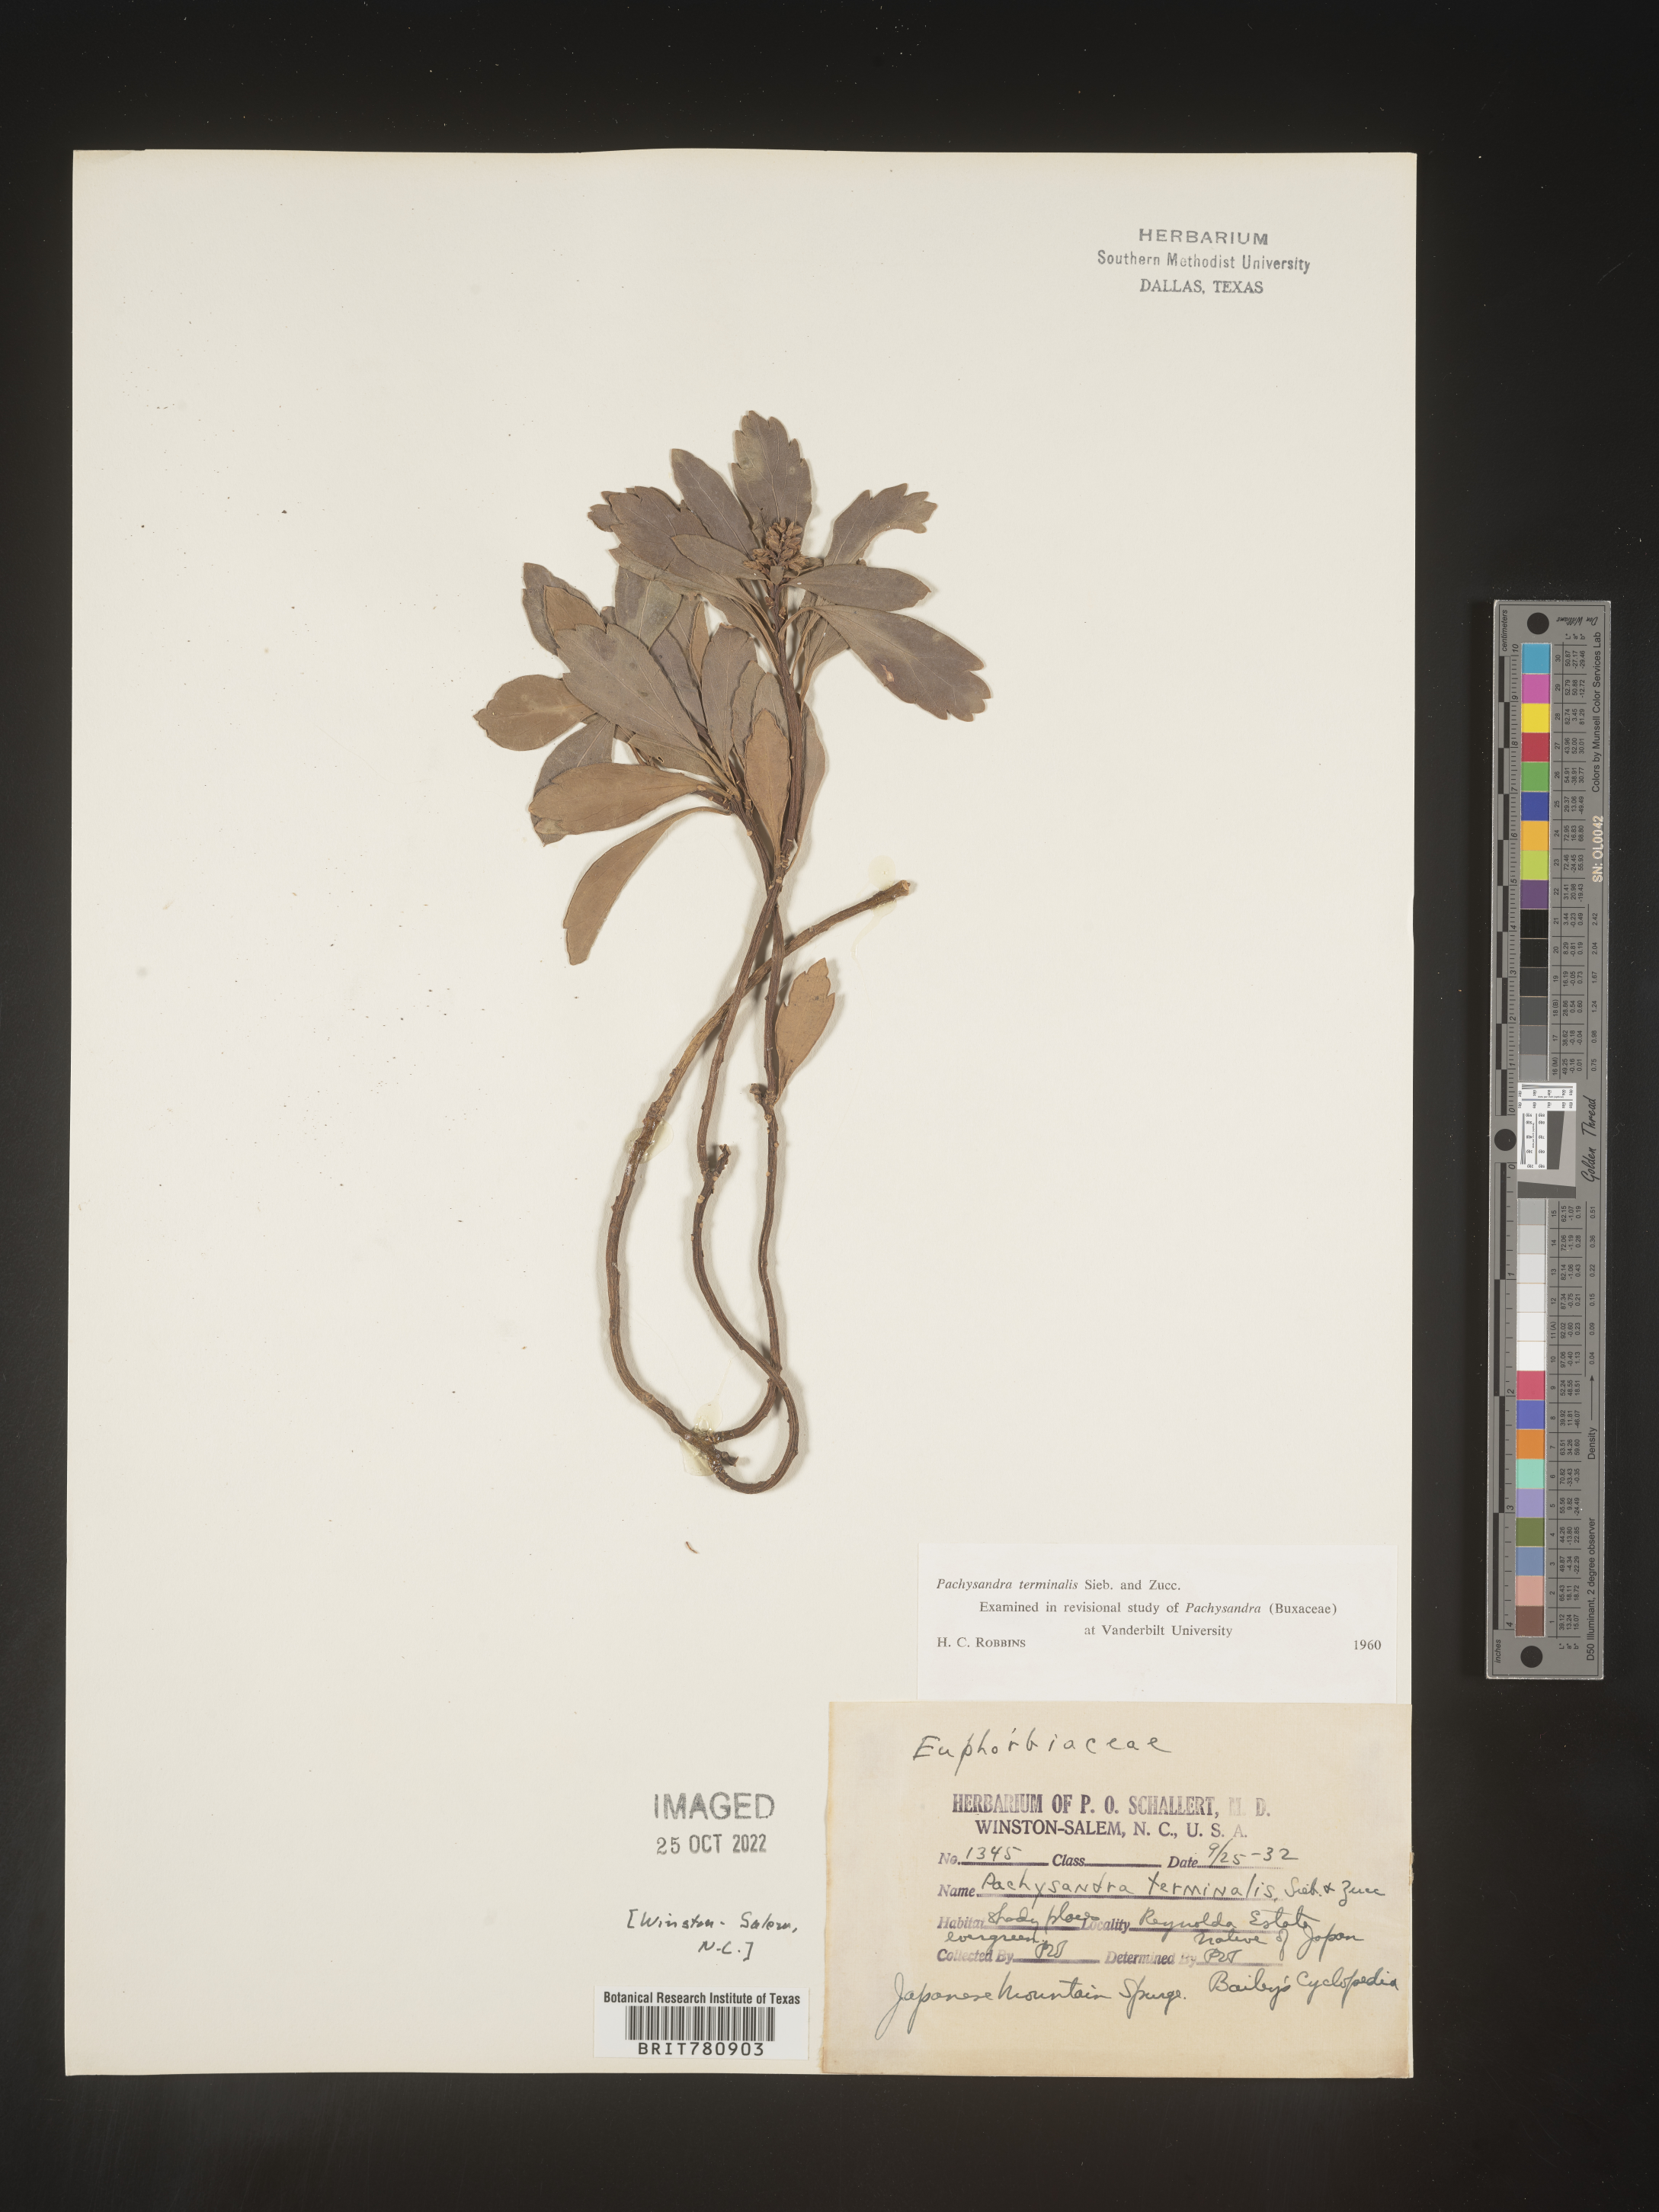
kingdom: Plantae
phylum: Tracheophyta
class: Magnoliopsida
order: Buxales
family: Buxaceae
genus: Pachysandra
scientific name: Pachysandra
